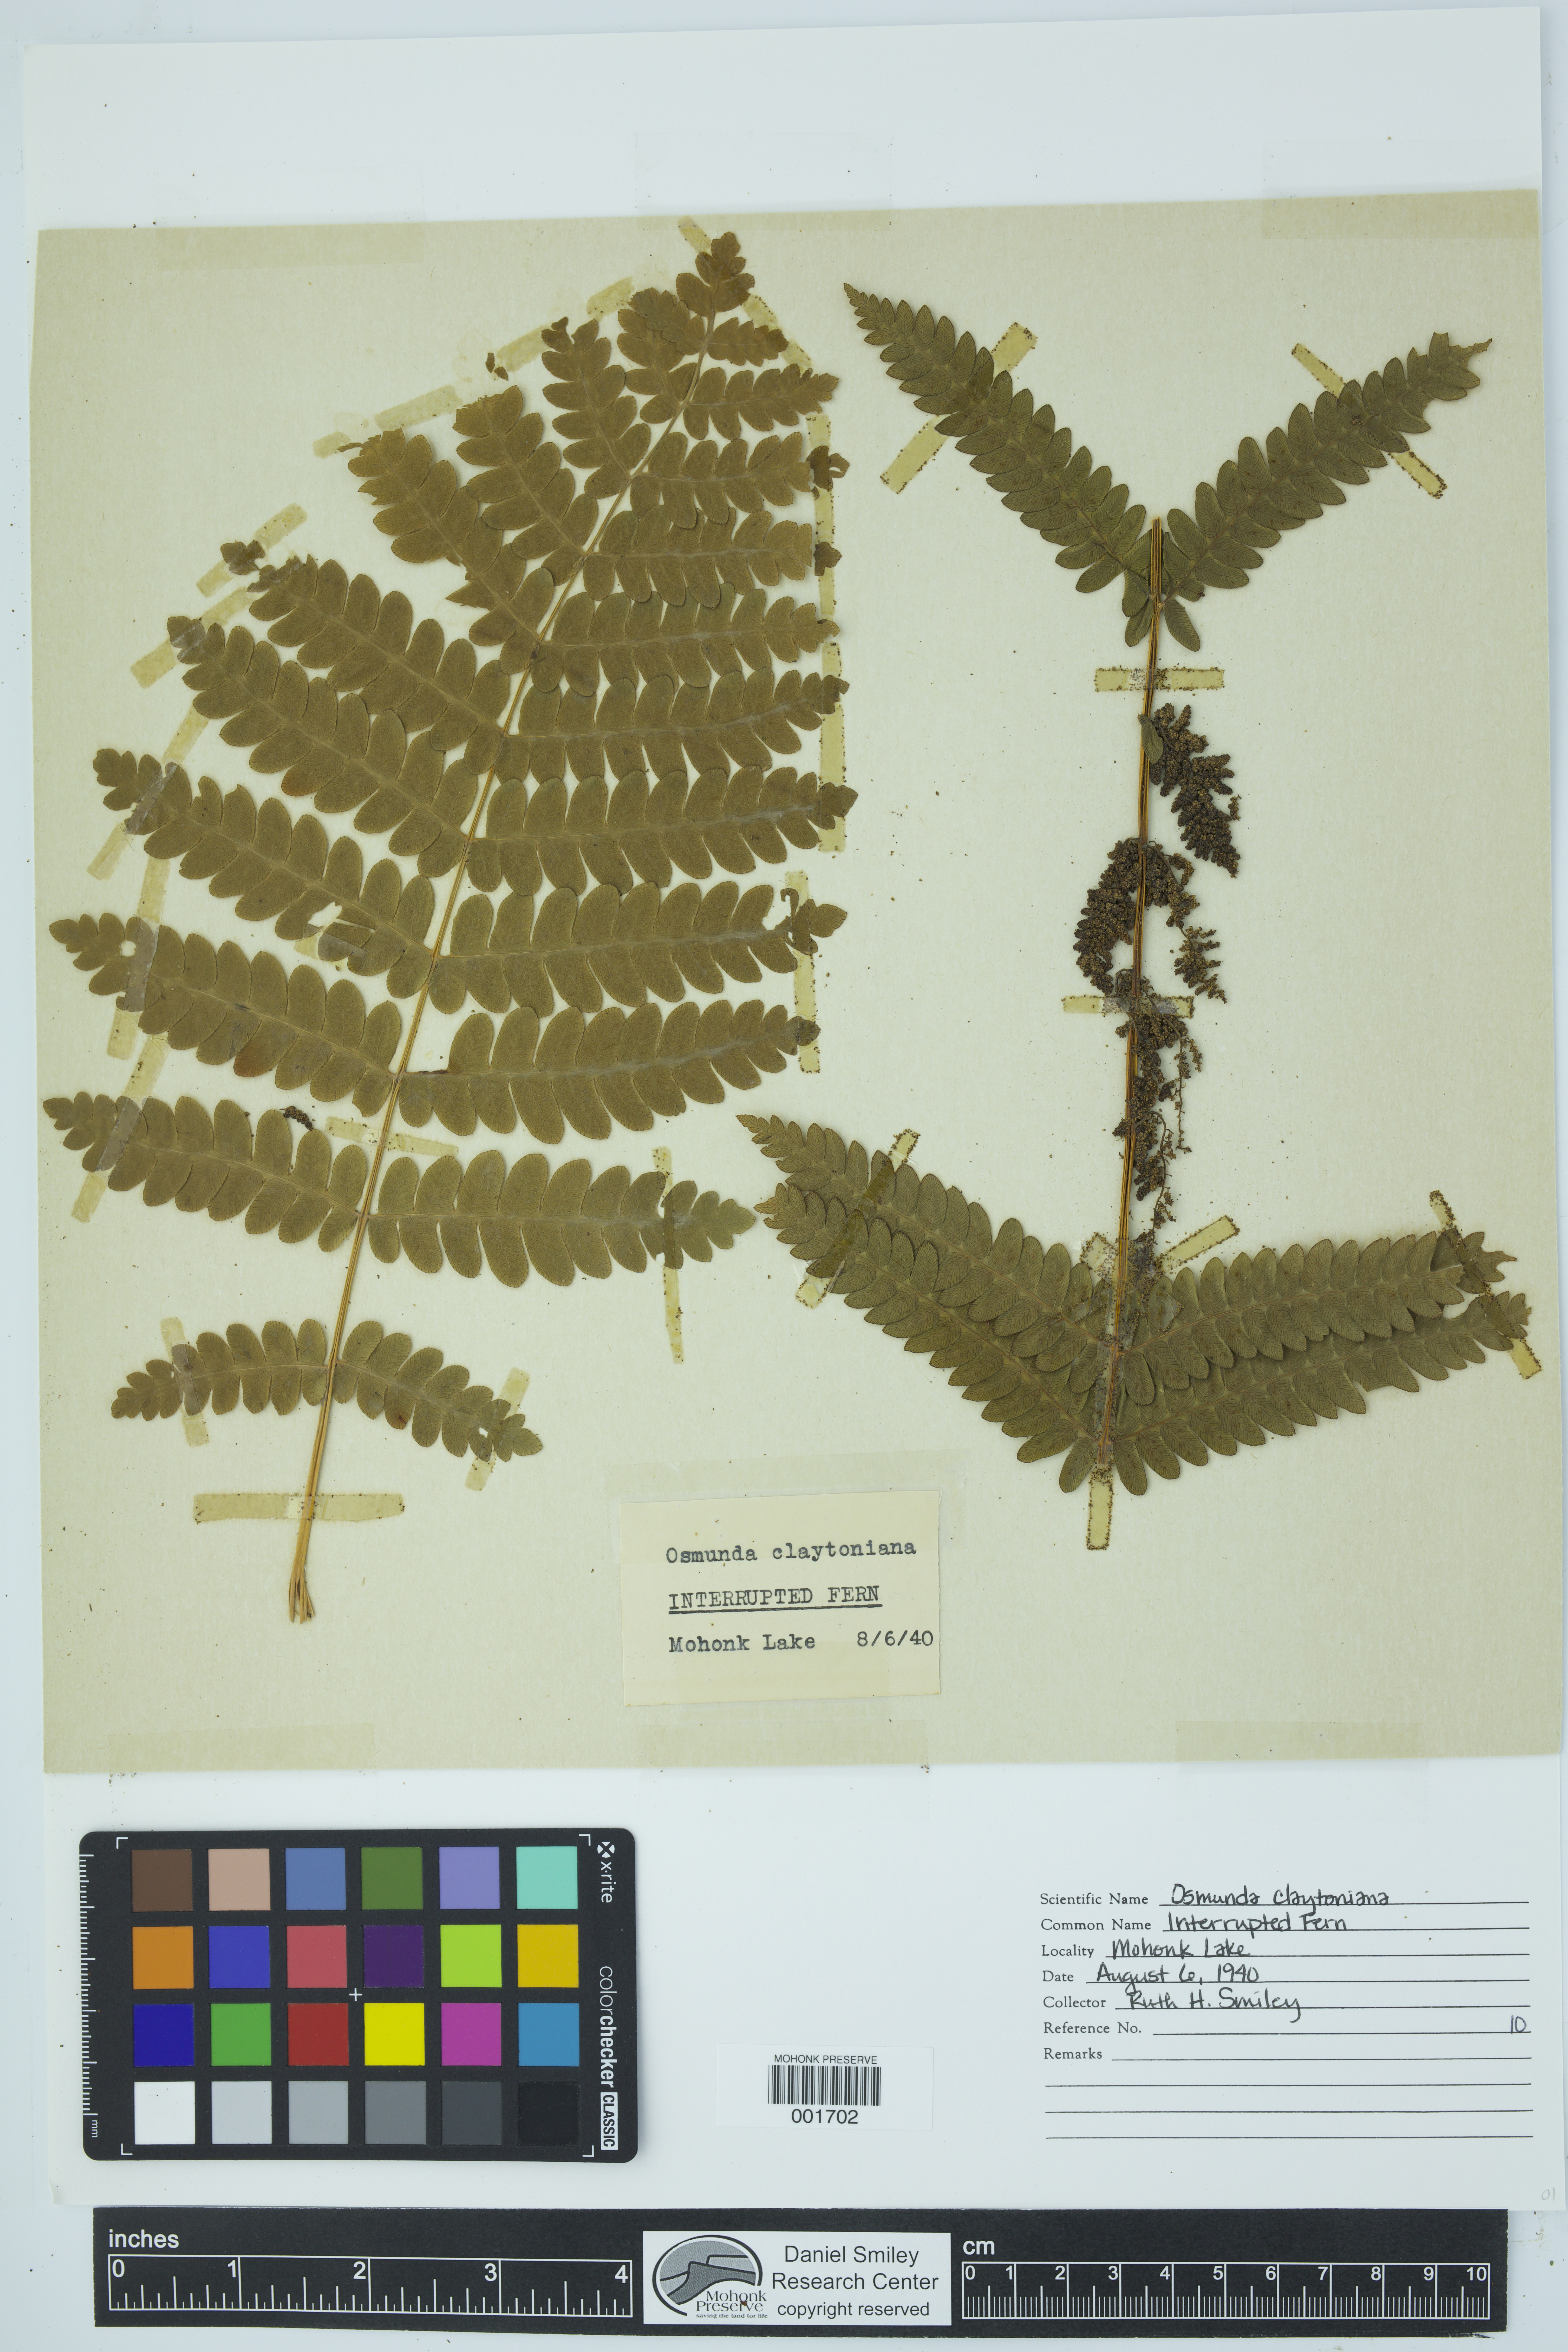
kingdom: Plantae
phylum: Tracheophyta
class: Polypodiopsida
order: Osmundales
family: Osmundaceae
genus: Claytosmunda
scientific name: Claytosmunda claytoniana
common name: Clayton's fern
